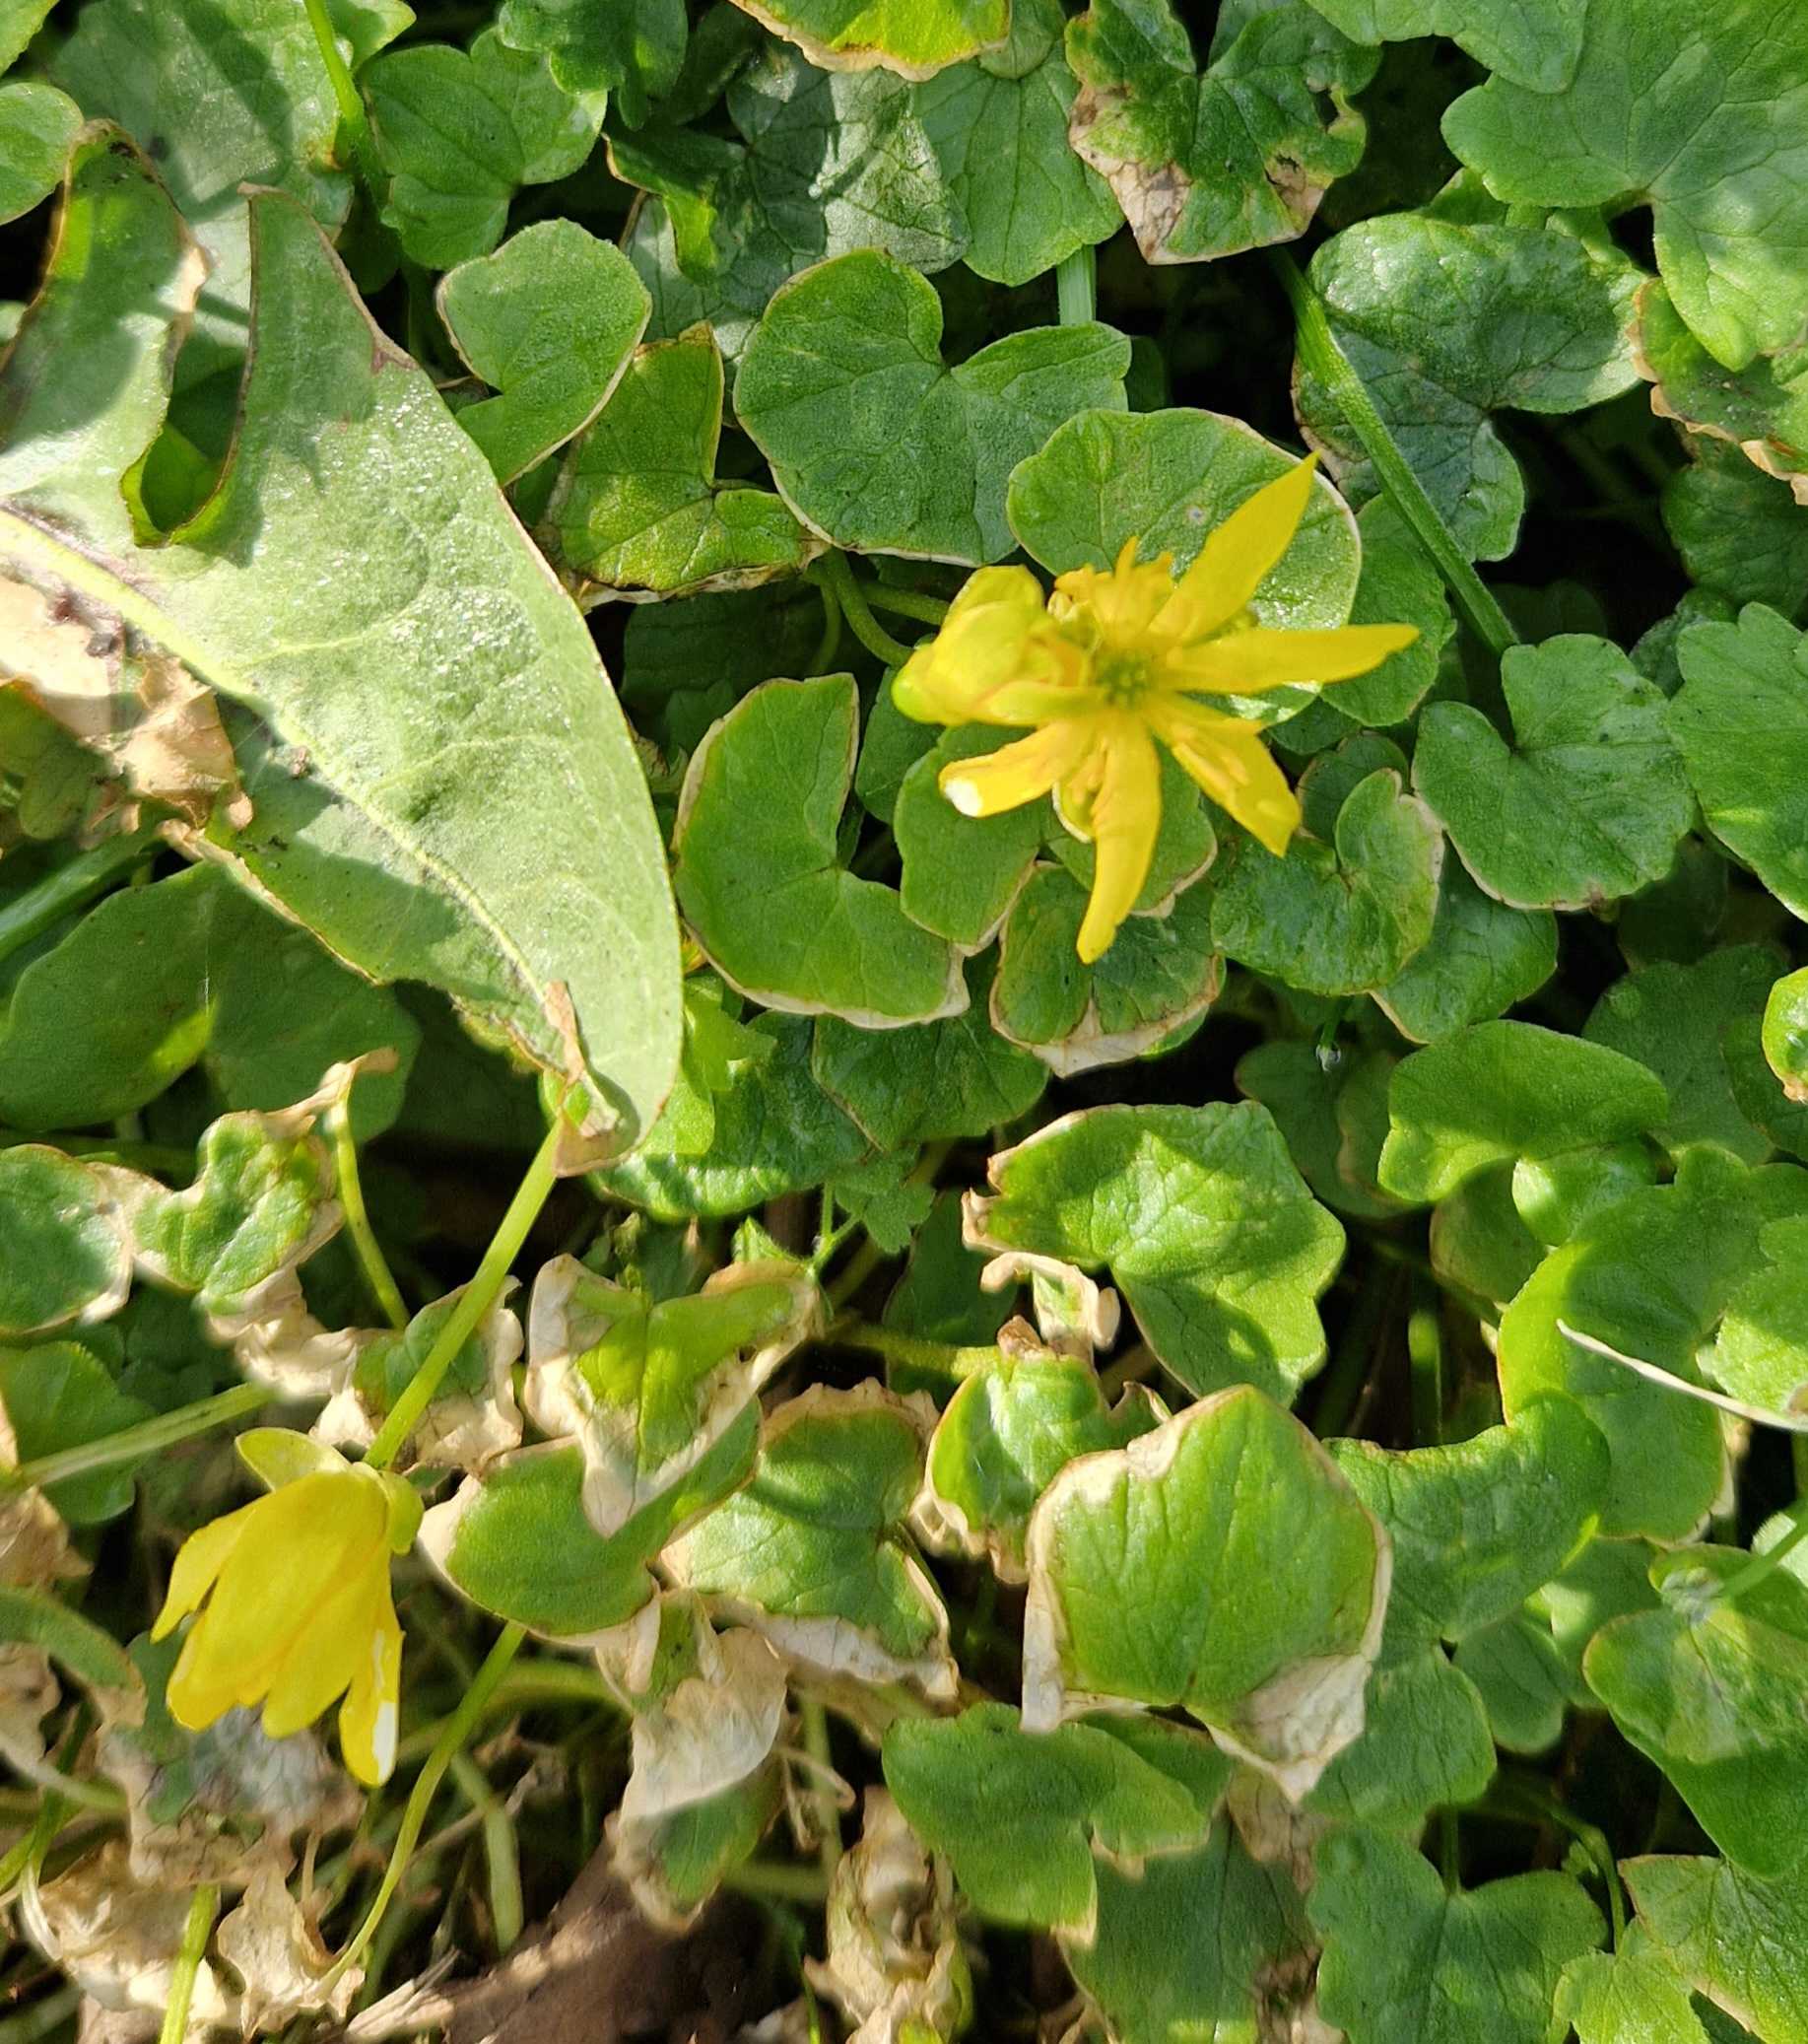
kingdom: Plantae
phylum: Tracheophyta
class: Magnoliopsida
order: Ranunculales
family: Ranunculaceae
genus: Ficaria
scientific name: Ficaria verna
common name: Vorterod
